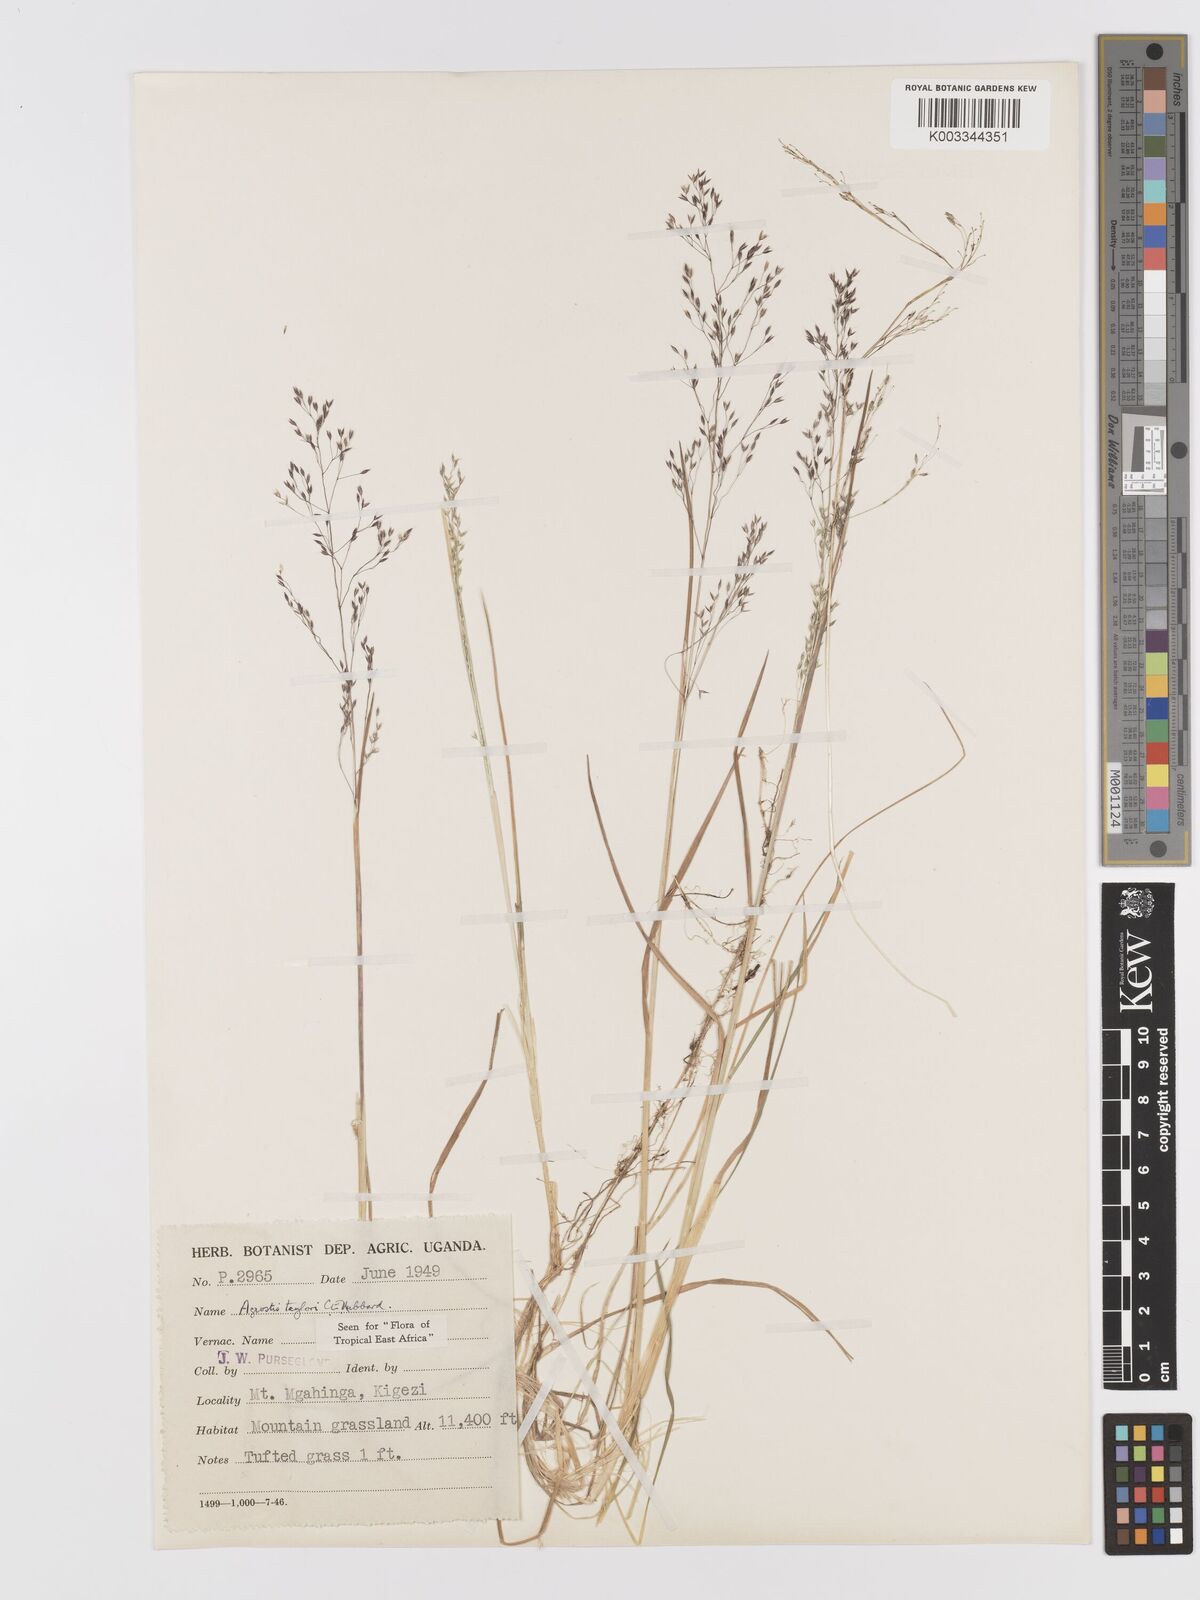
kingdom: Plantae
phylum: Tracheophyta
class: Liliopsida
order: Poales
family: Poaceae
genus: Agrostis
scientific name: Agrostis taylorii
